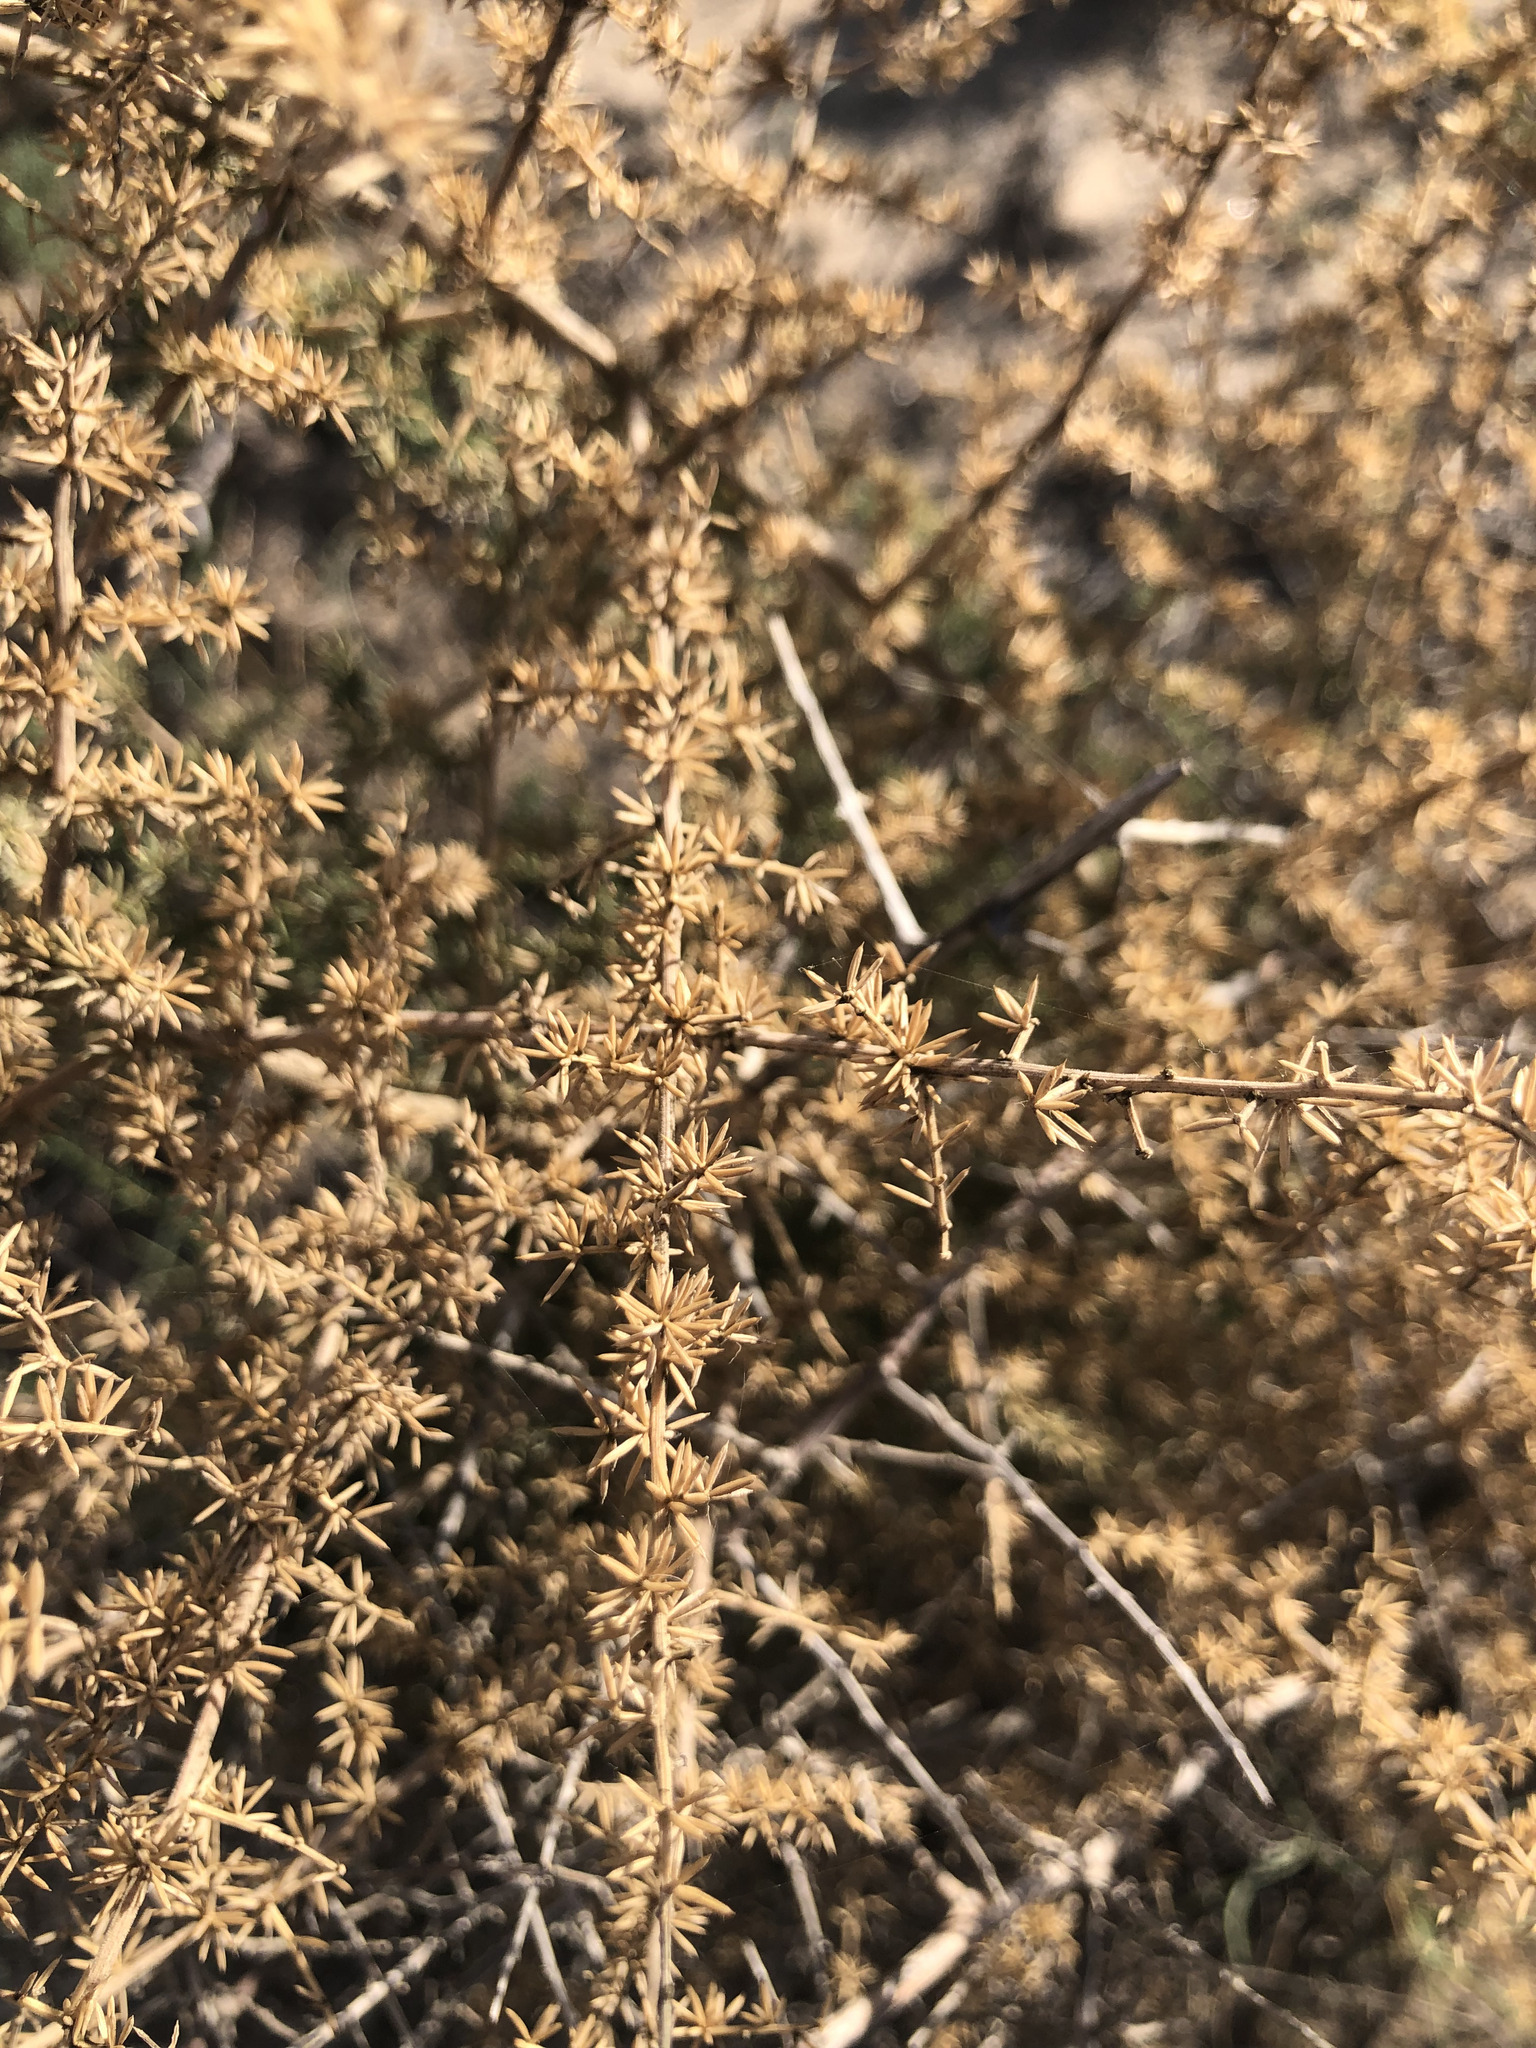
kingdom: Plantae
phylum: Tracheophyta
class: Liliopsida
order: Asparagales
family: Asparagaceae
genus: Asparagus
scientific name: Asparagus acutifolius
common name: Wild asparagus
